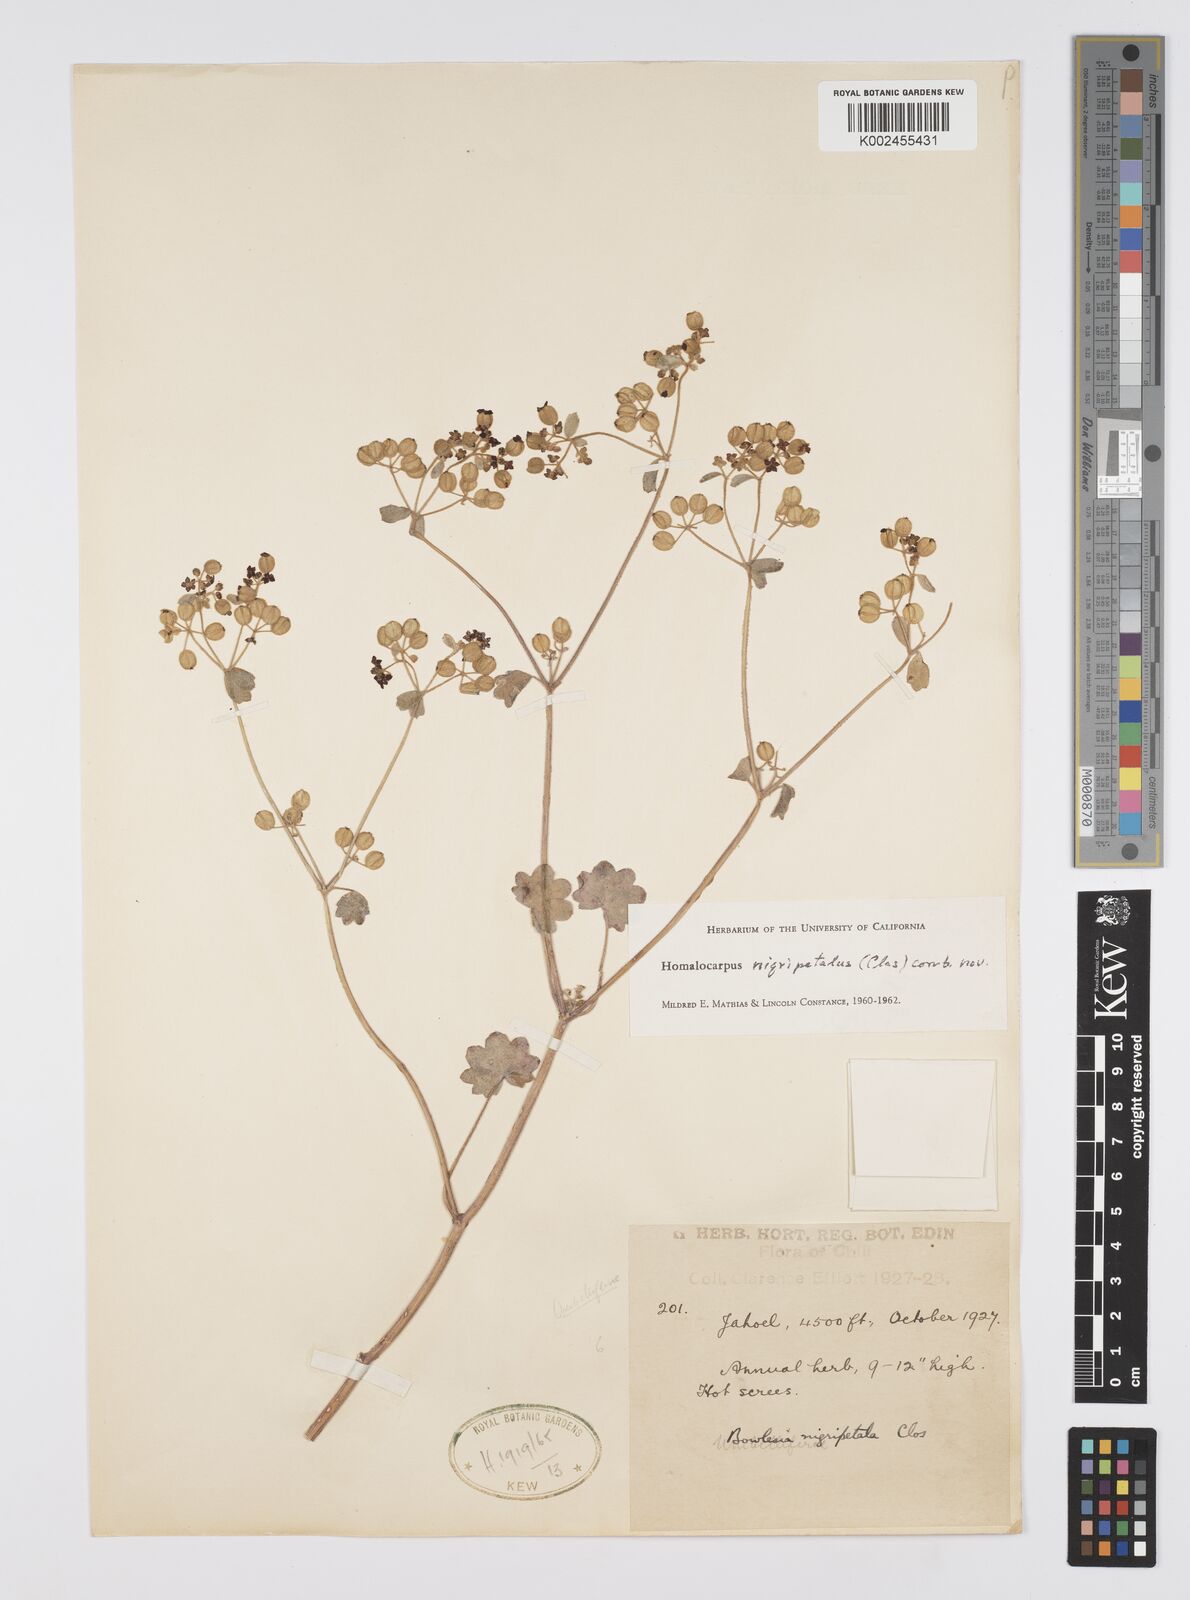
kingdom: Plantae
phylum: Tracheophyta
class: Magnoliopsida
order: Apiales
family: Apiaceae
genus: Homalocarpus
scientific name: Homalocarpus nigripetalus
